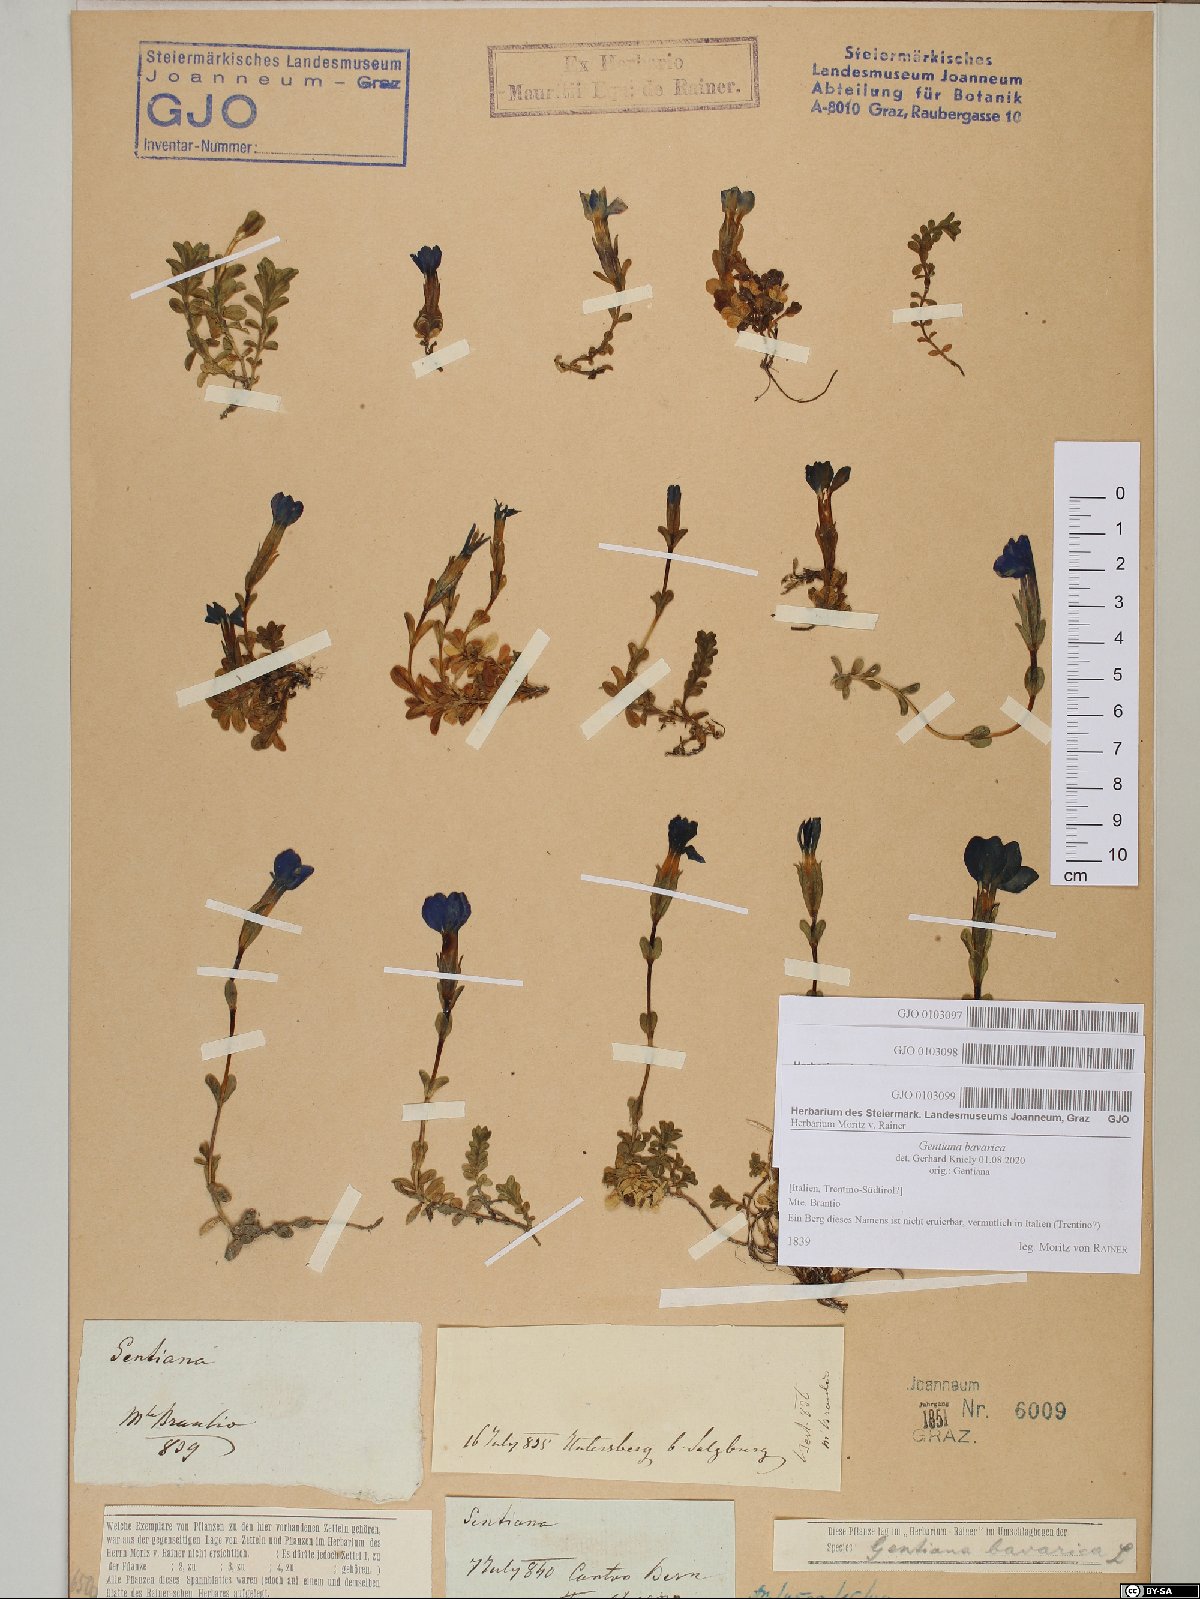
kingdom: Plantae
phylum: Tracheophyta
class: Magnoliopsida
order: Gentianales
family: Gentianaceae
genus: Gentiana
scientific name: Gentiana bavarica
